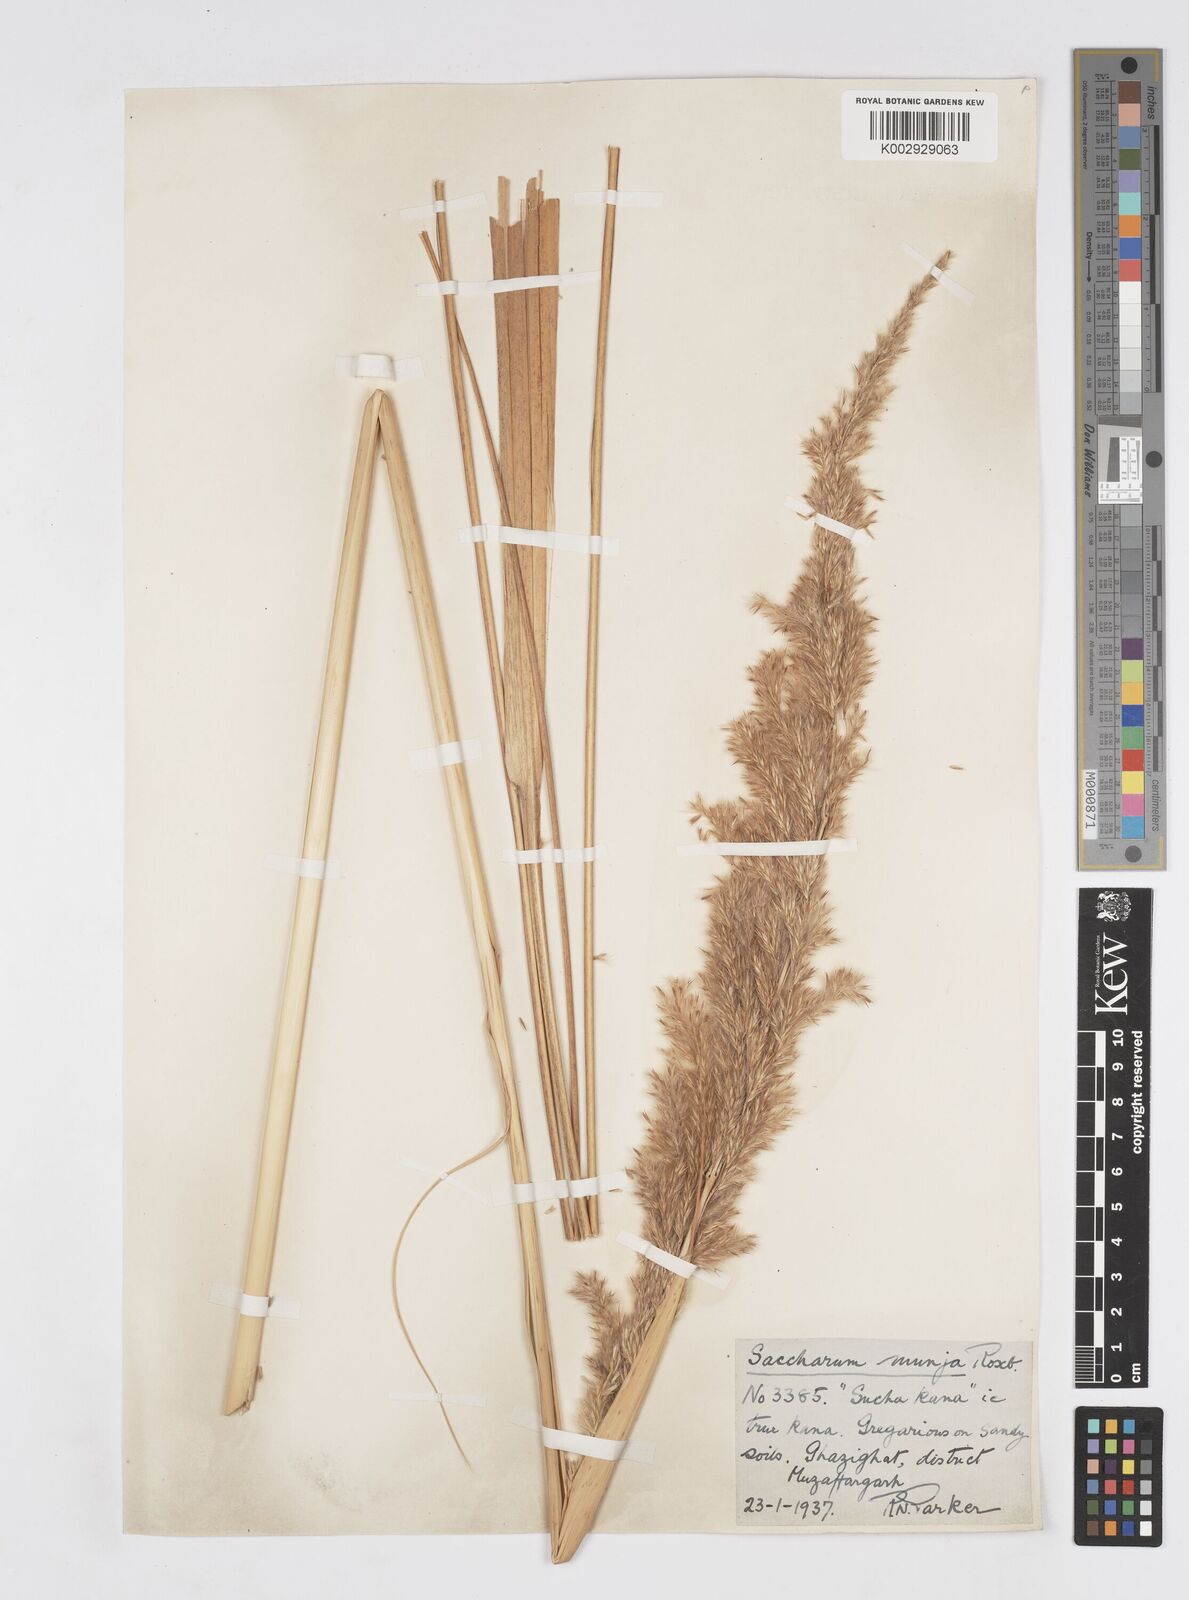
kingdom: Plantae
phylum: Tracheophyta
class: Liliopsida
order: Poales
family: Poaceae
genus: Tripidium
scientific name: Tripidium bengalense
